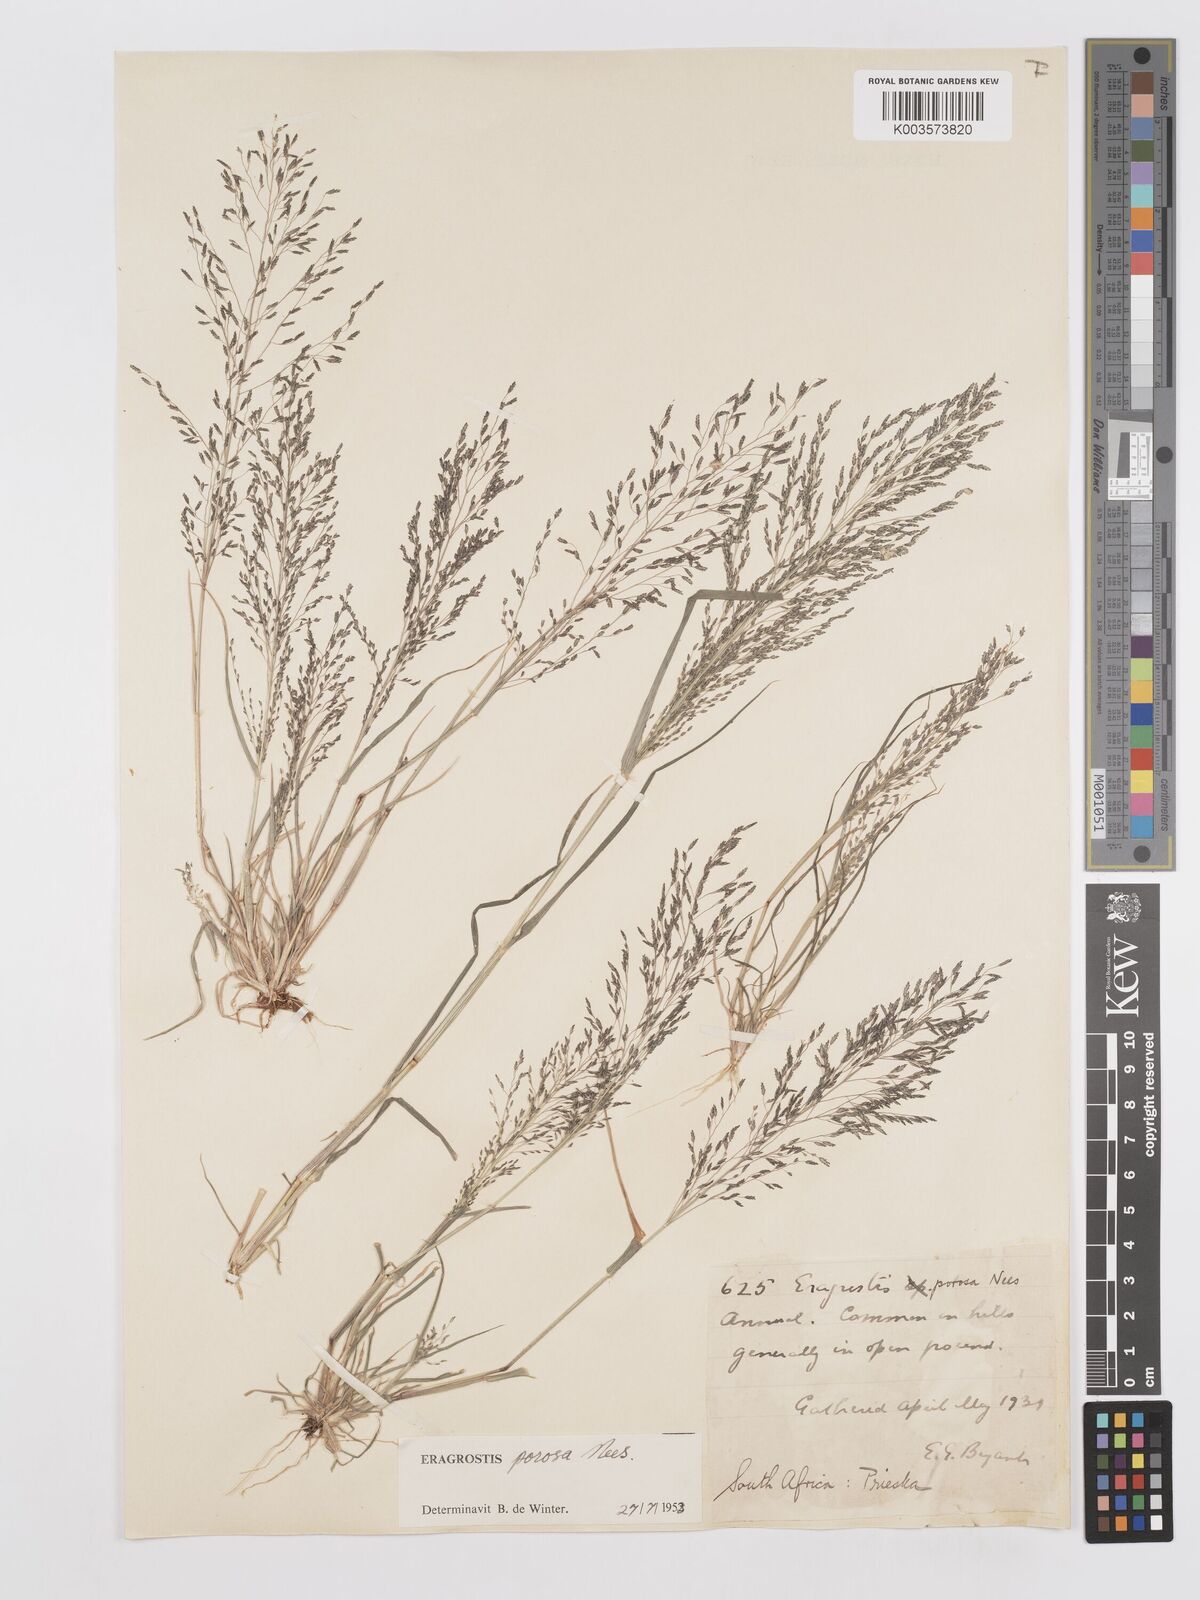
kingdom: Plantae
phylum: Tracheophyta
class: Liliopsida
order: Poales
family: Poaceae
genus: Eragrostis
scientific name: Eragrostis porosa
